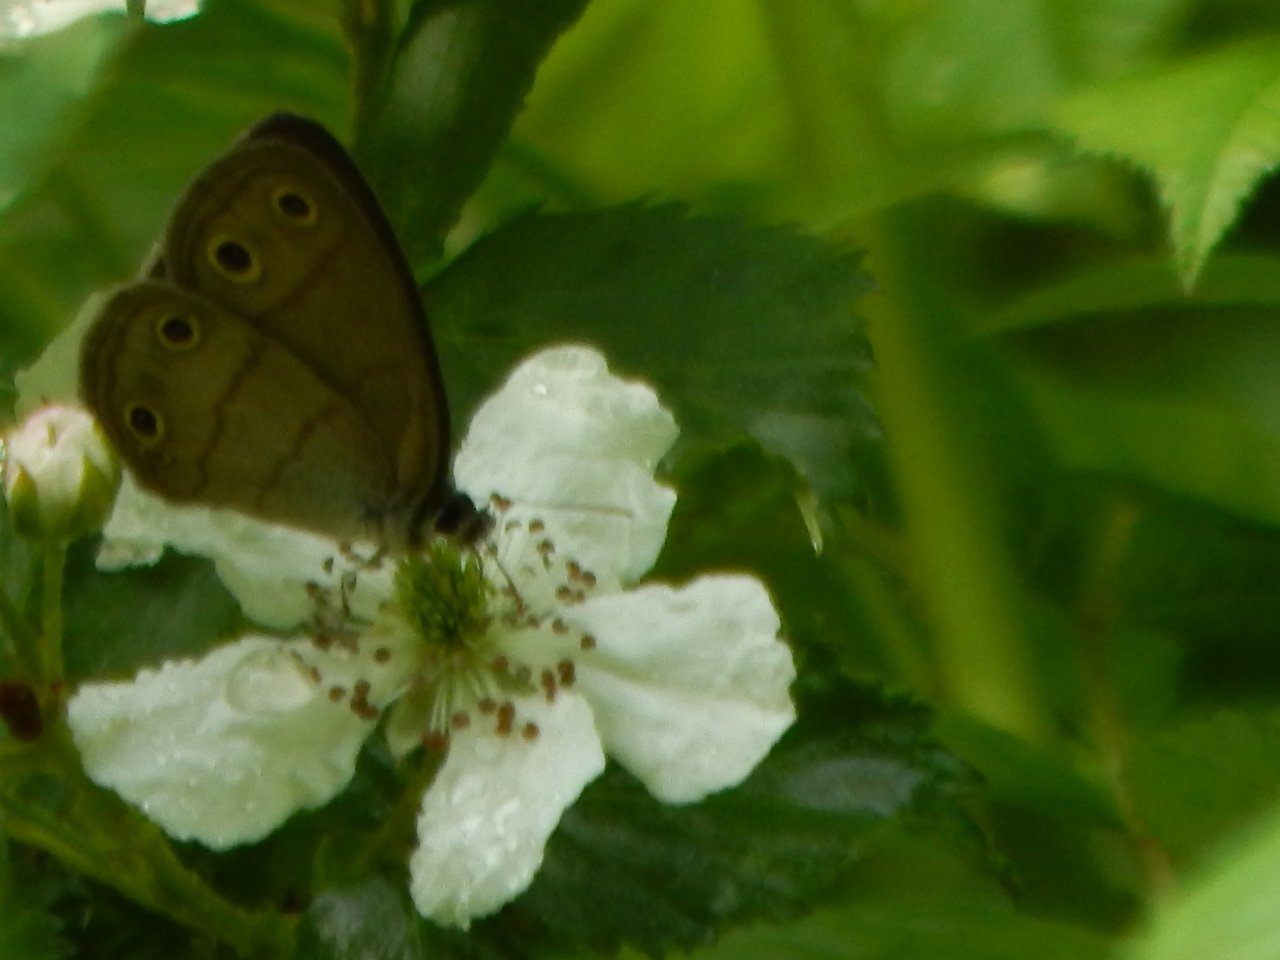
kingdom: Animalia
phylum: Arthropoda
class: Insecta
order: Lepidoptera
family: Nymphalidae
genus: Euptychia
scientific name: Euptychia cymela
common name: Little Wood Satyr
